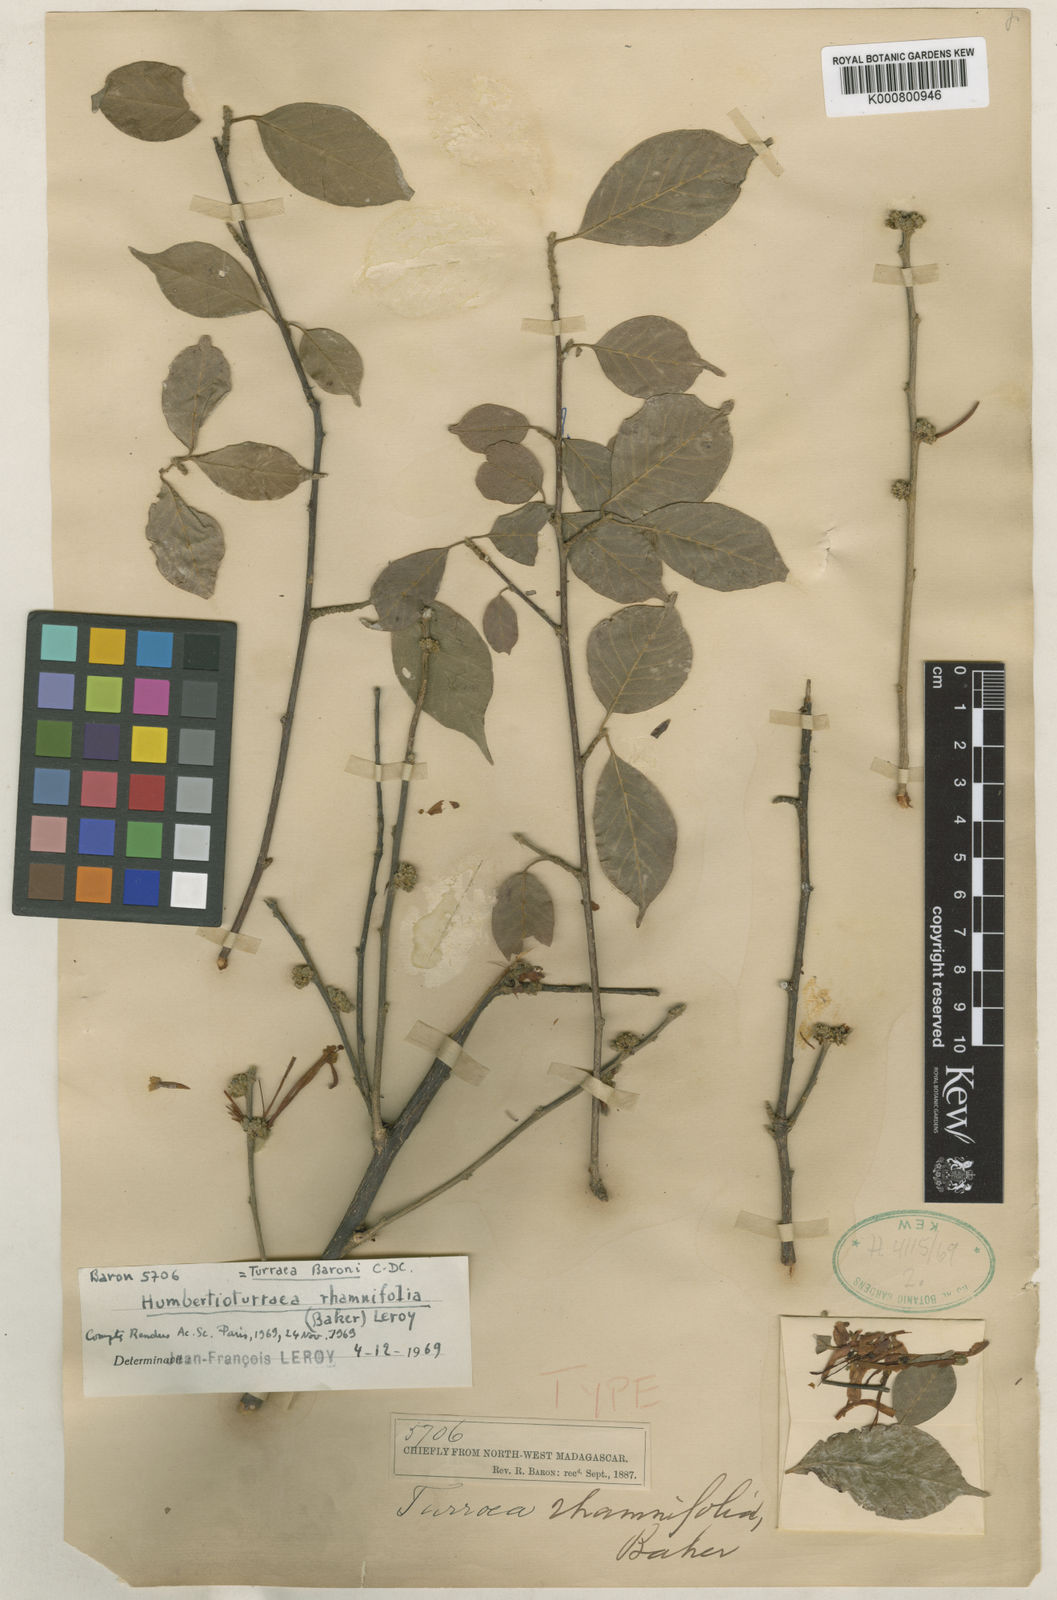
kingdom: Plantae
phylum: Tracheophyta
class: Magnoliopsida
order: Sapindales
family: Meliaceae
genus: Humbertioturraea
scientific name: Humbertioturraea rhamnifolia
